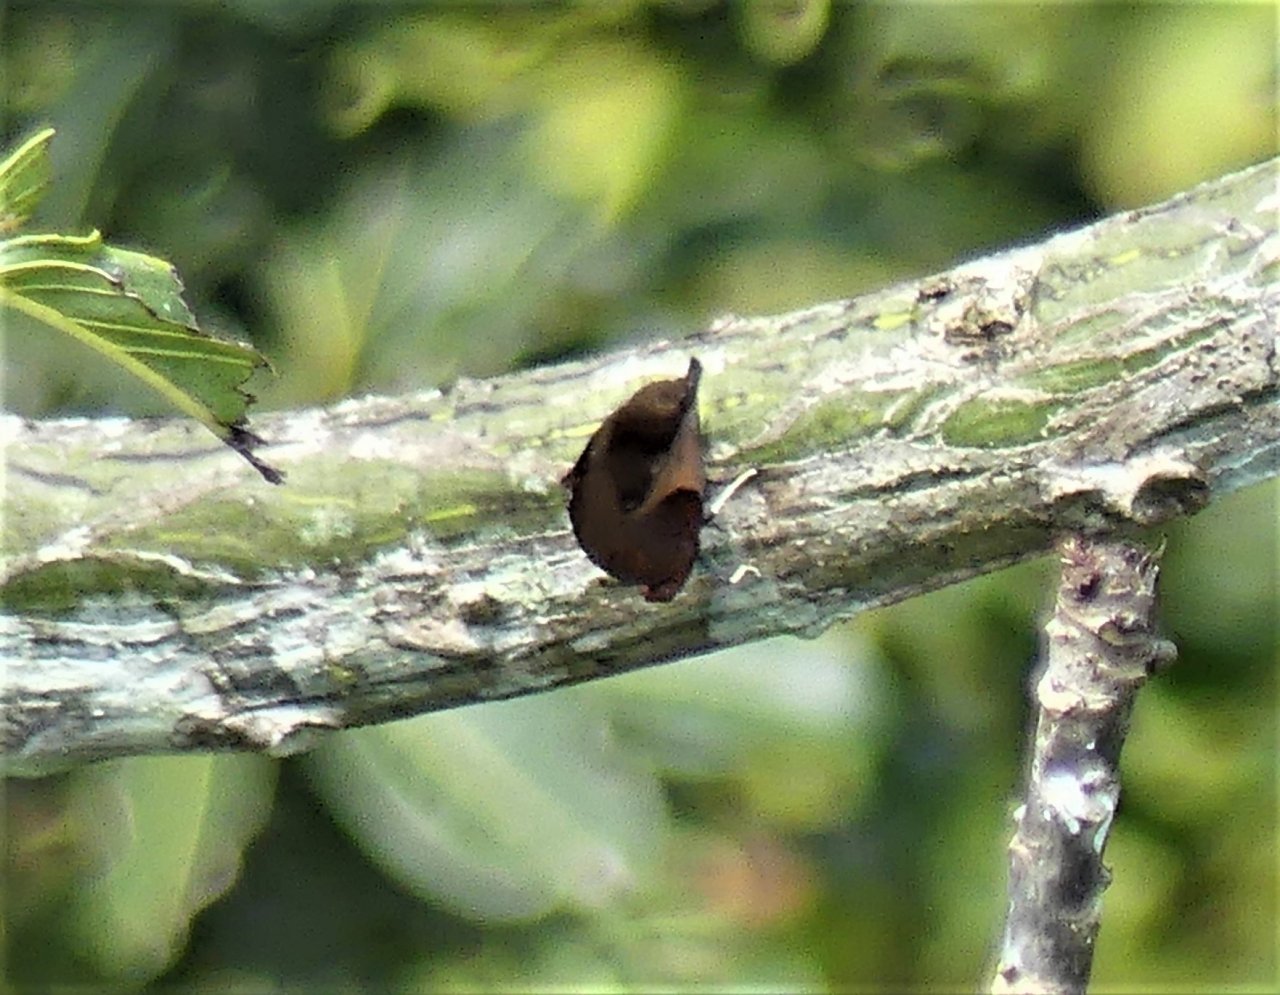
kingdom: Animalia
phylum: Arthropoda
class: Insecta
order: Lepidoptera
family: Nymphalidae
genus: Siderone
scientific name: Siderone galanthis
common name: Red-striped Leafwing
